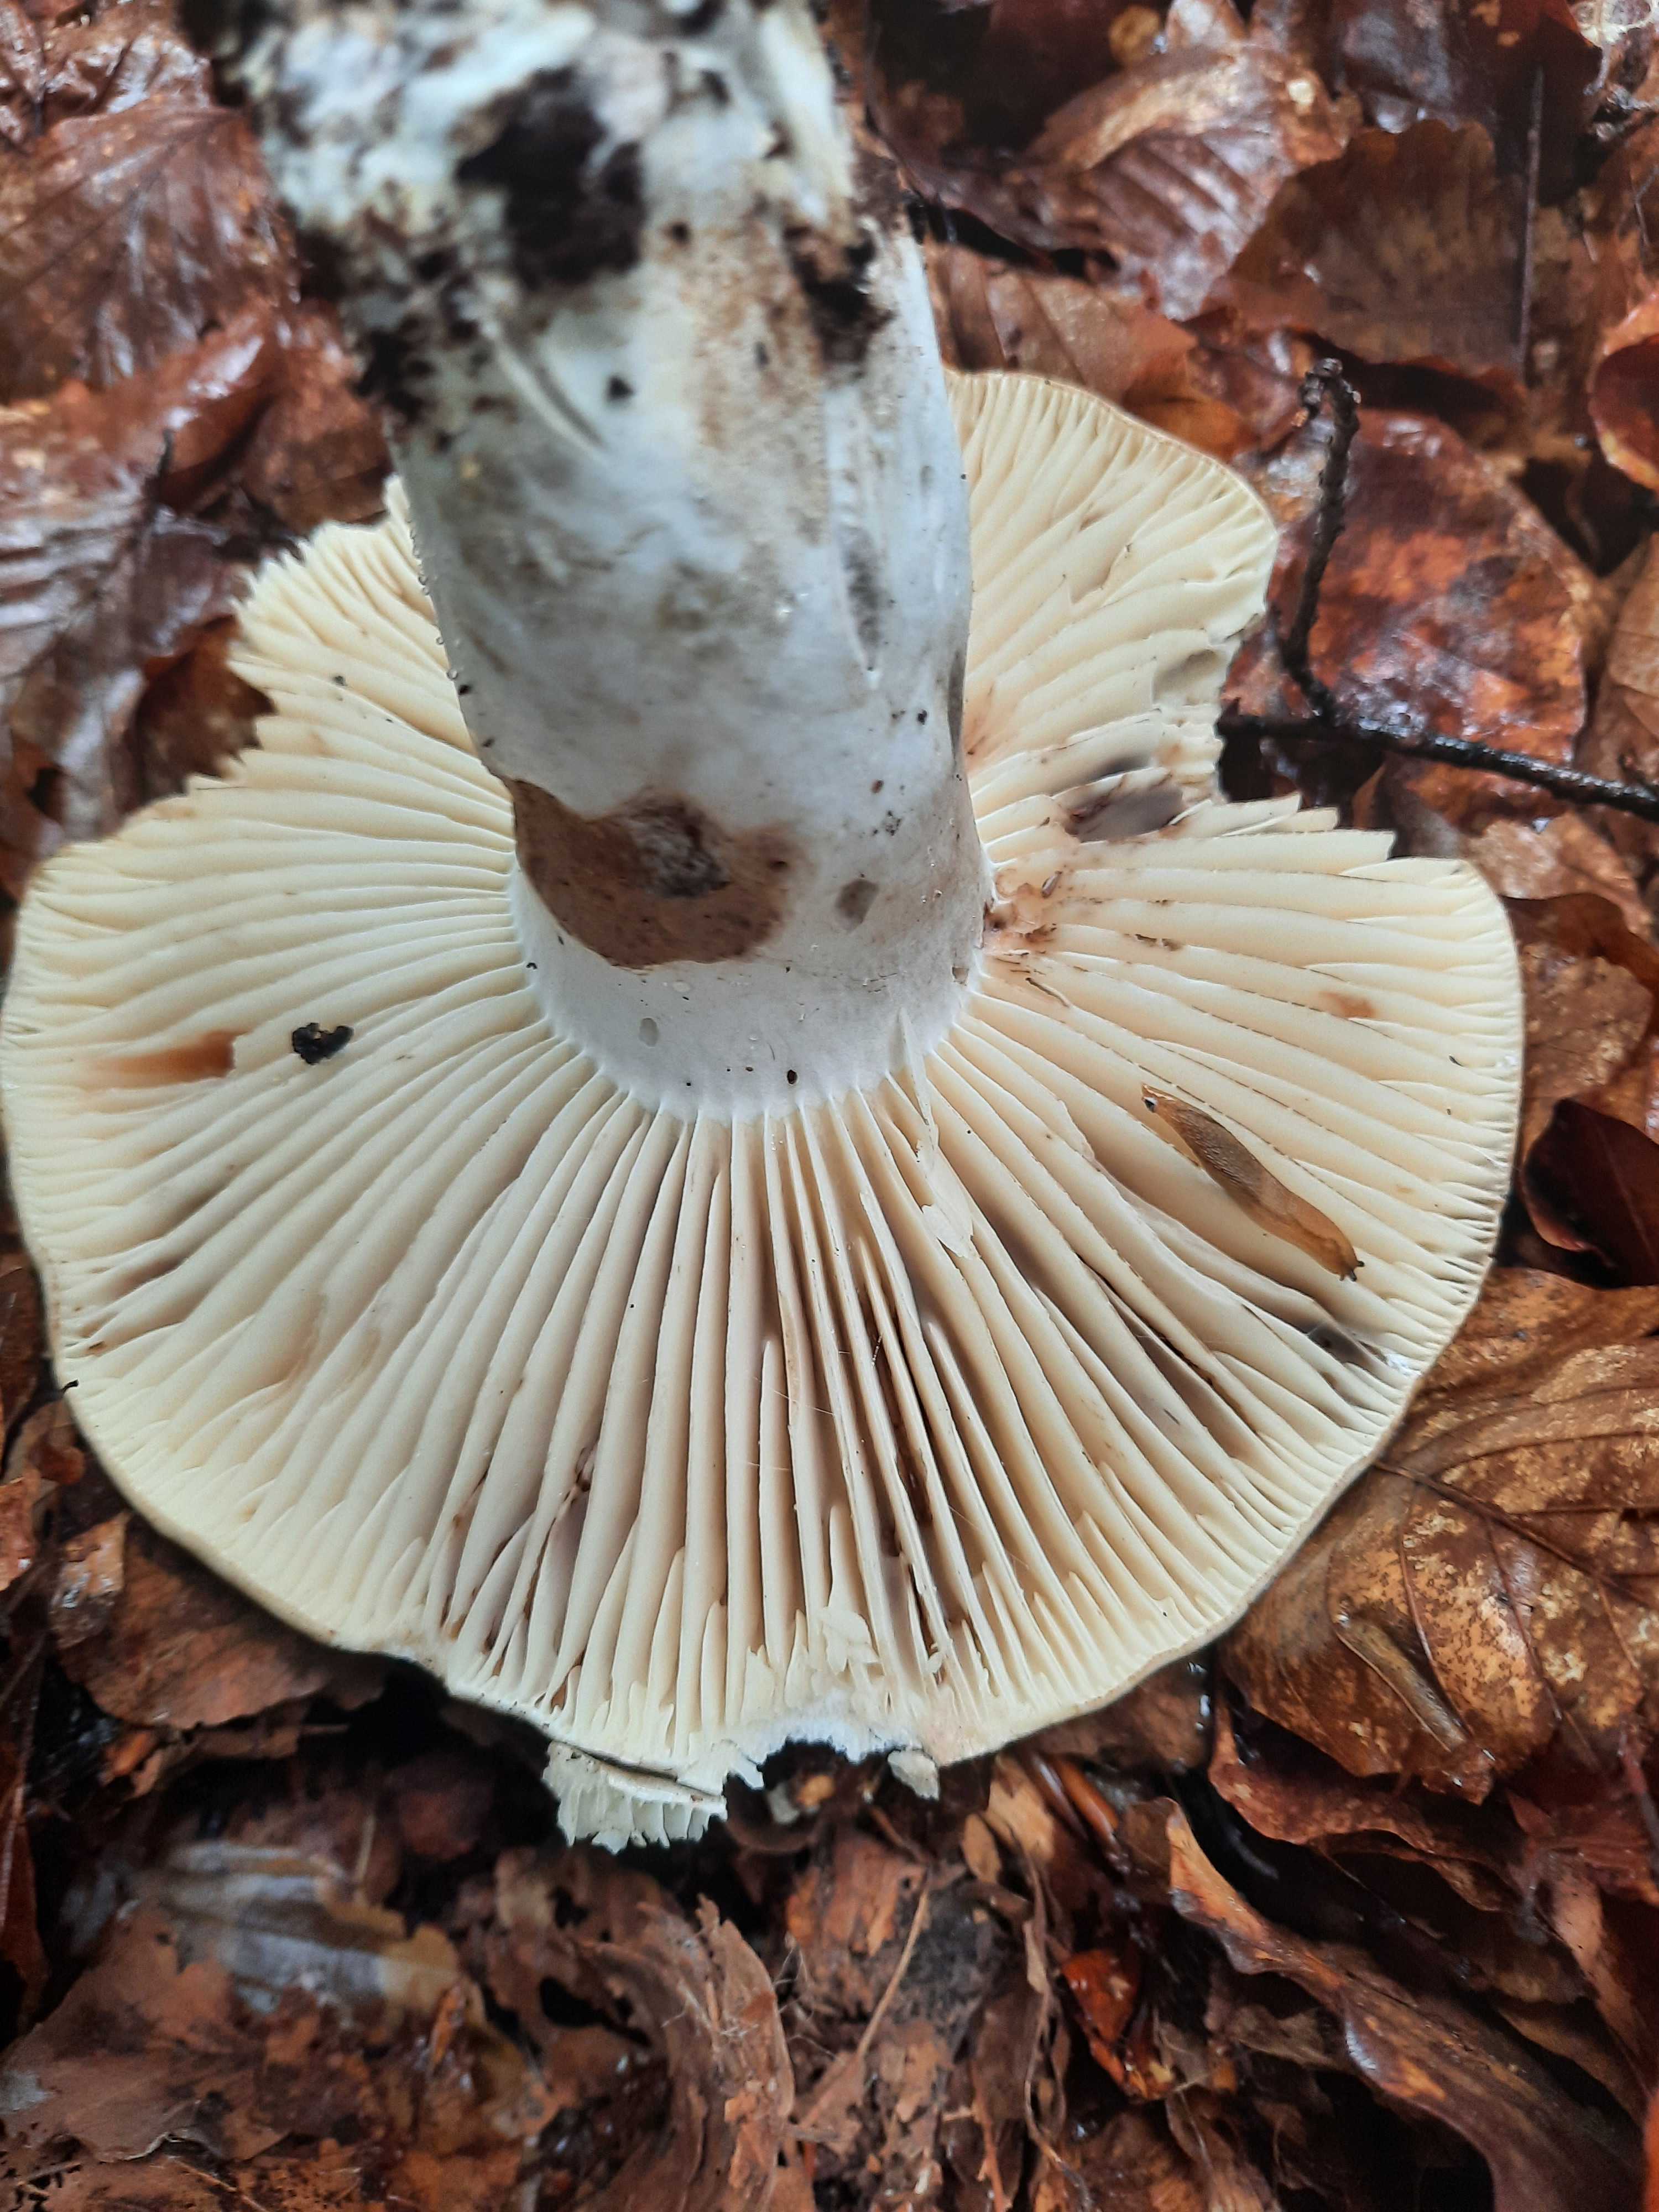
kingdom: Fungi
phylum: Basidiomycota
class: Agaricomycetes
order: Russulales
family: Russulaceae
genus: Russula
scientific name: Russula adusta
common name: sværtende skørhat
